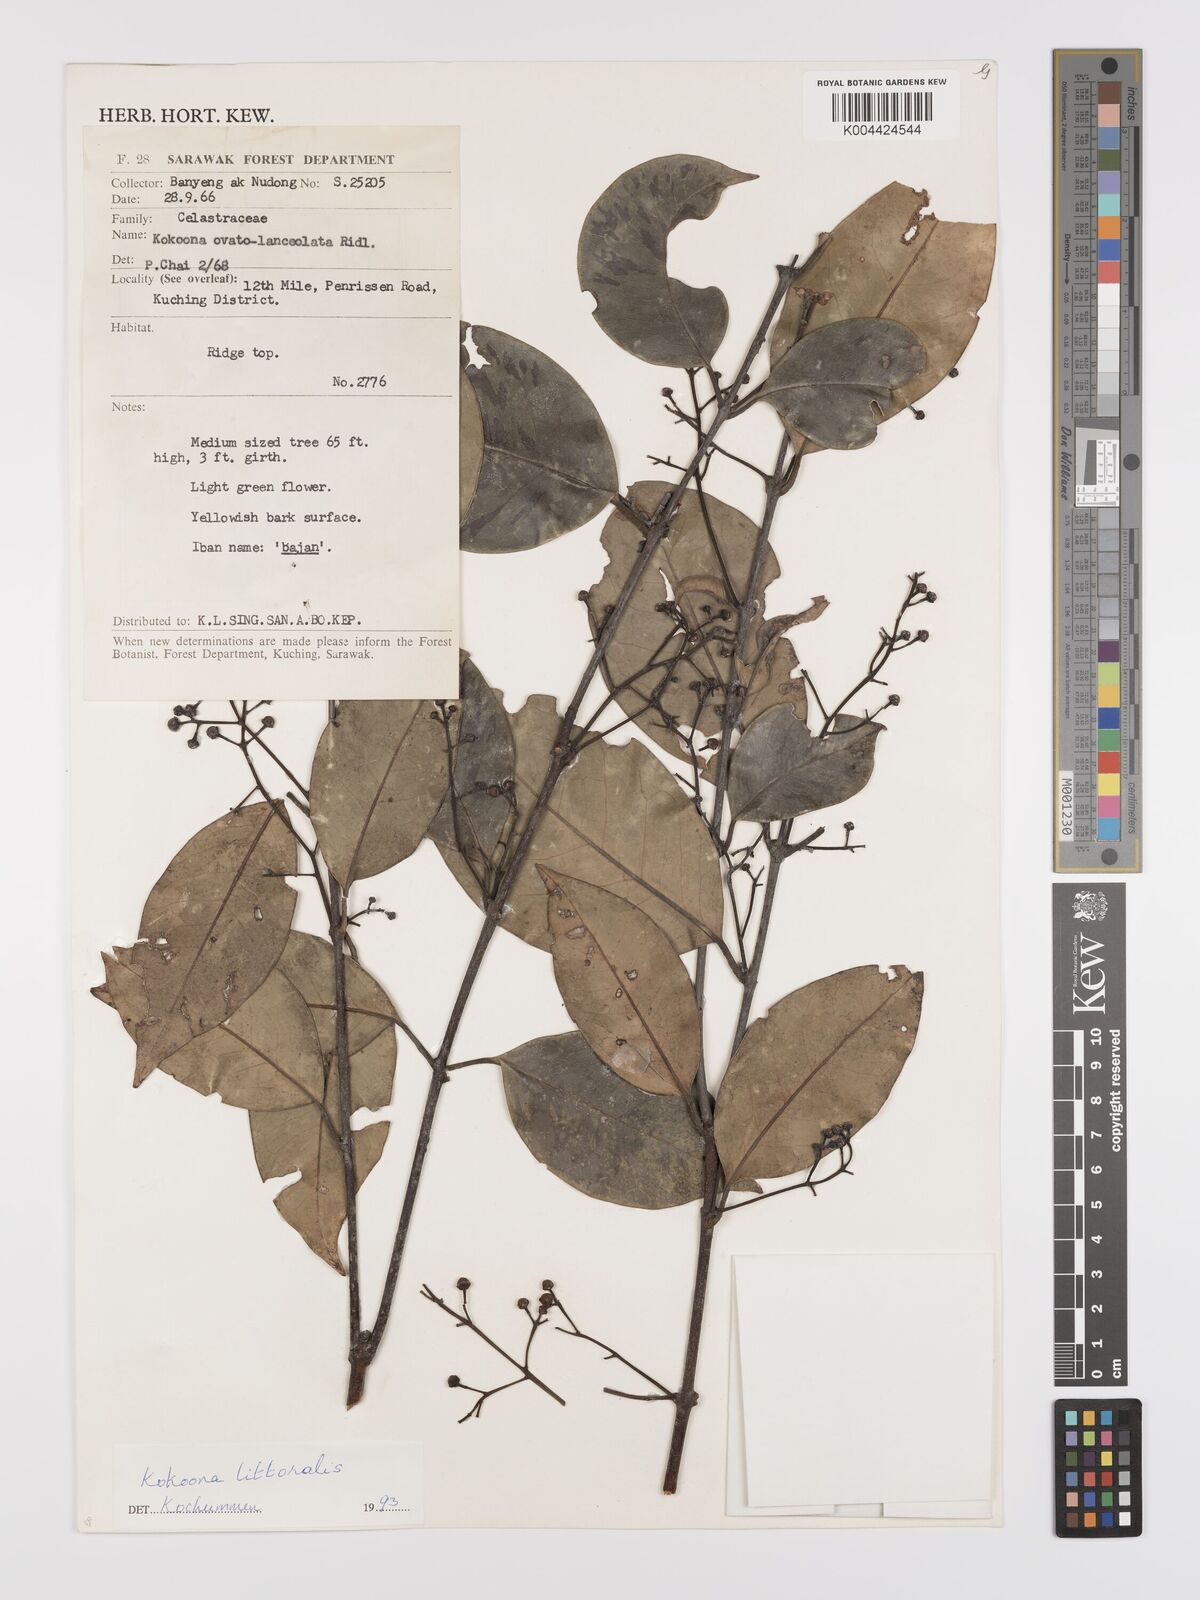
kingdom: Plantae
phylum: Tracheophyta
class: Magnoliopsida
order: Celastrales
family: Celastraceae
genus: Kokoona
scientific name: Kokoona littoralis
